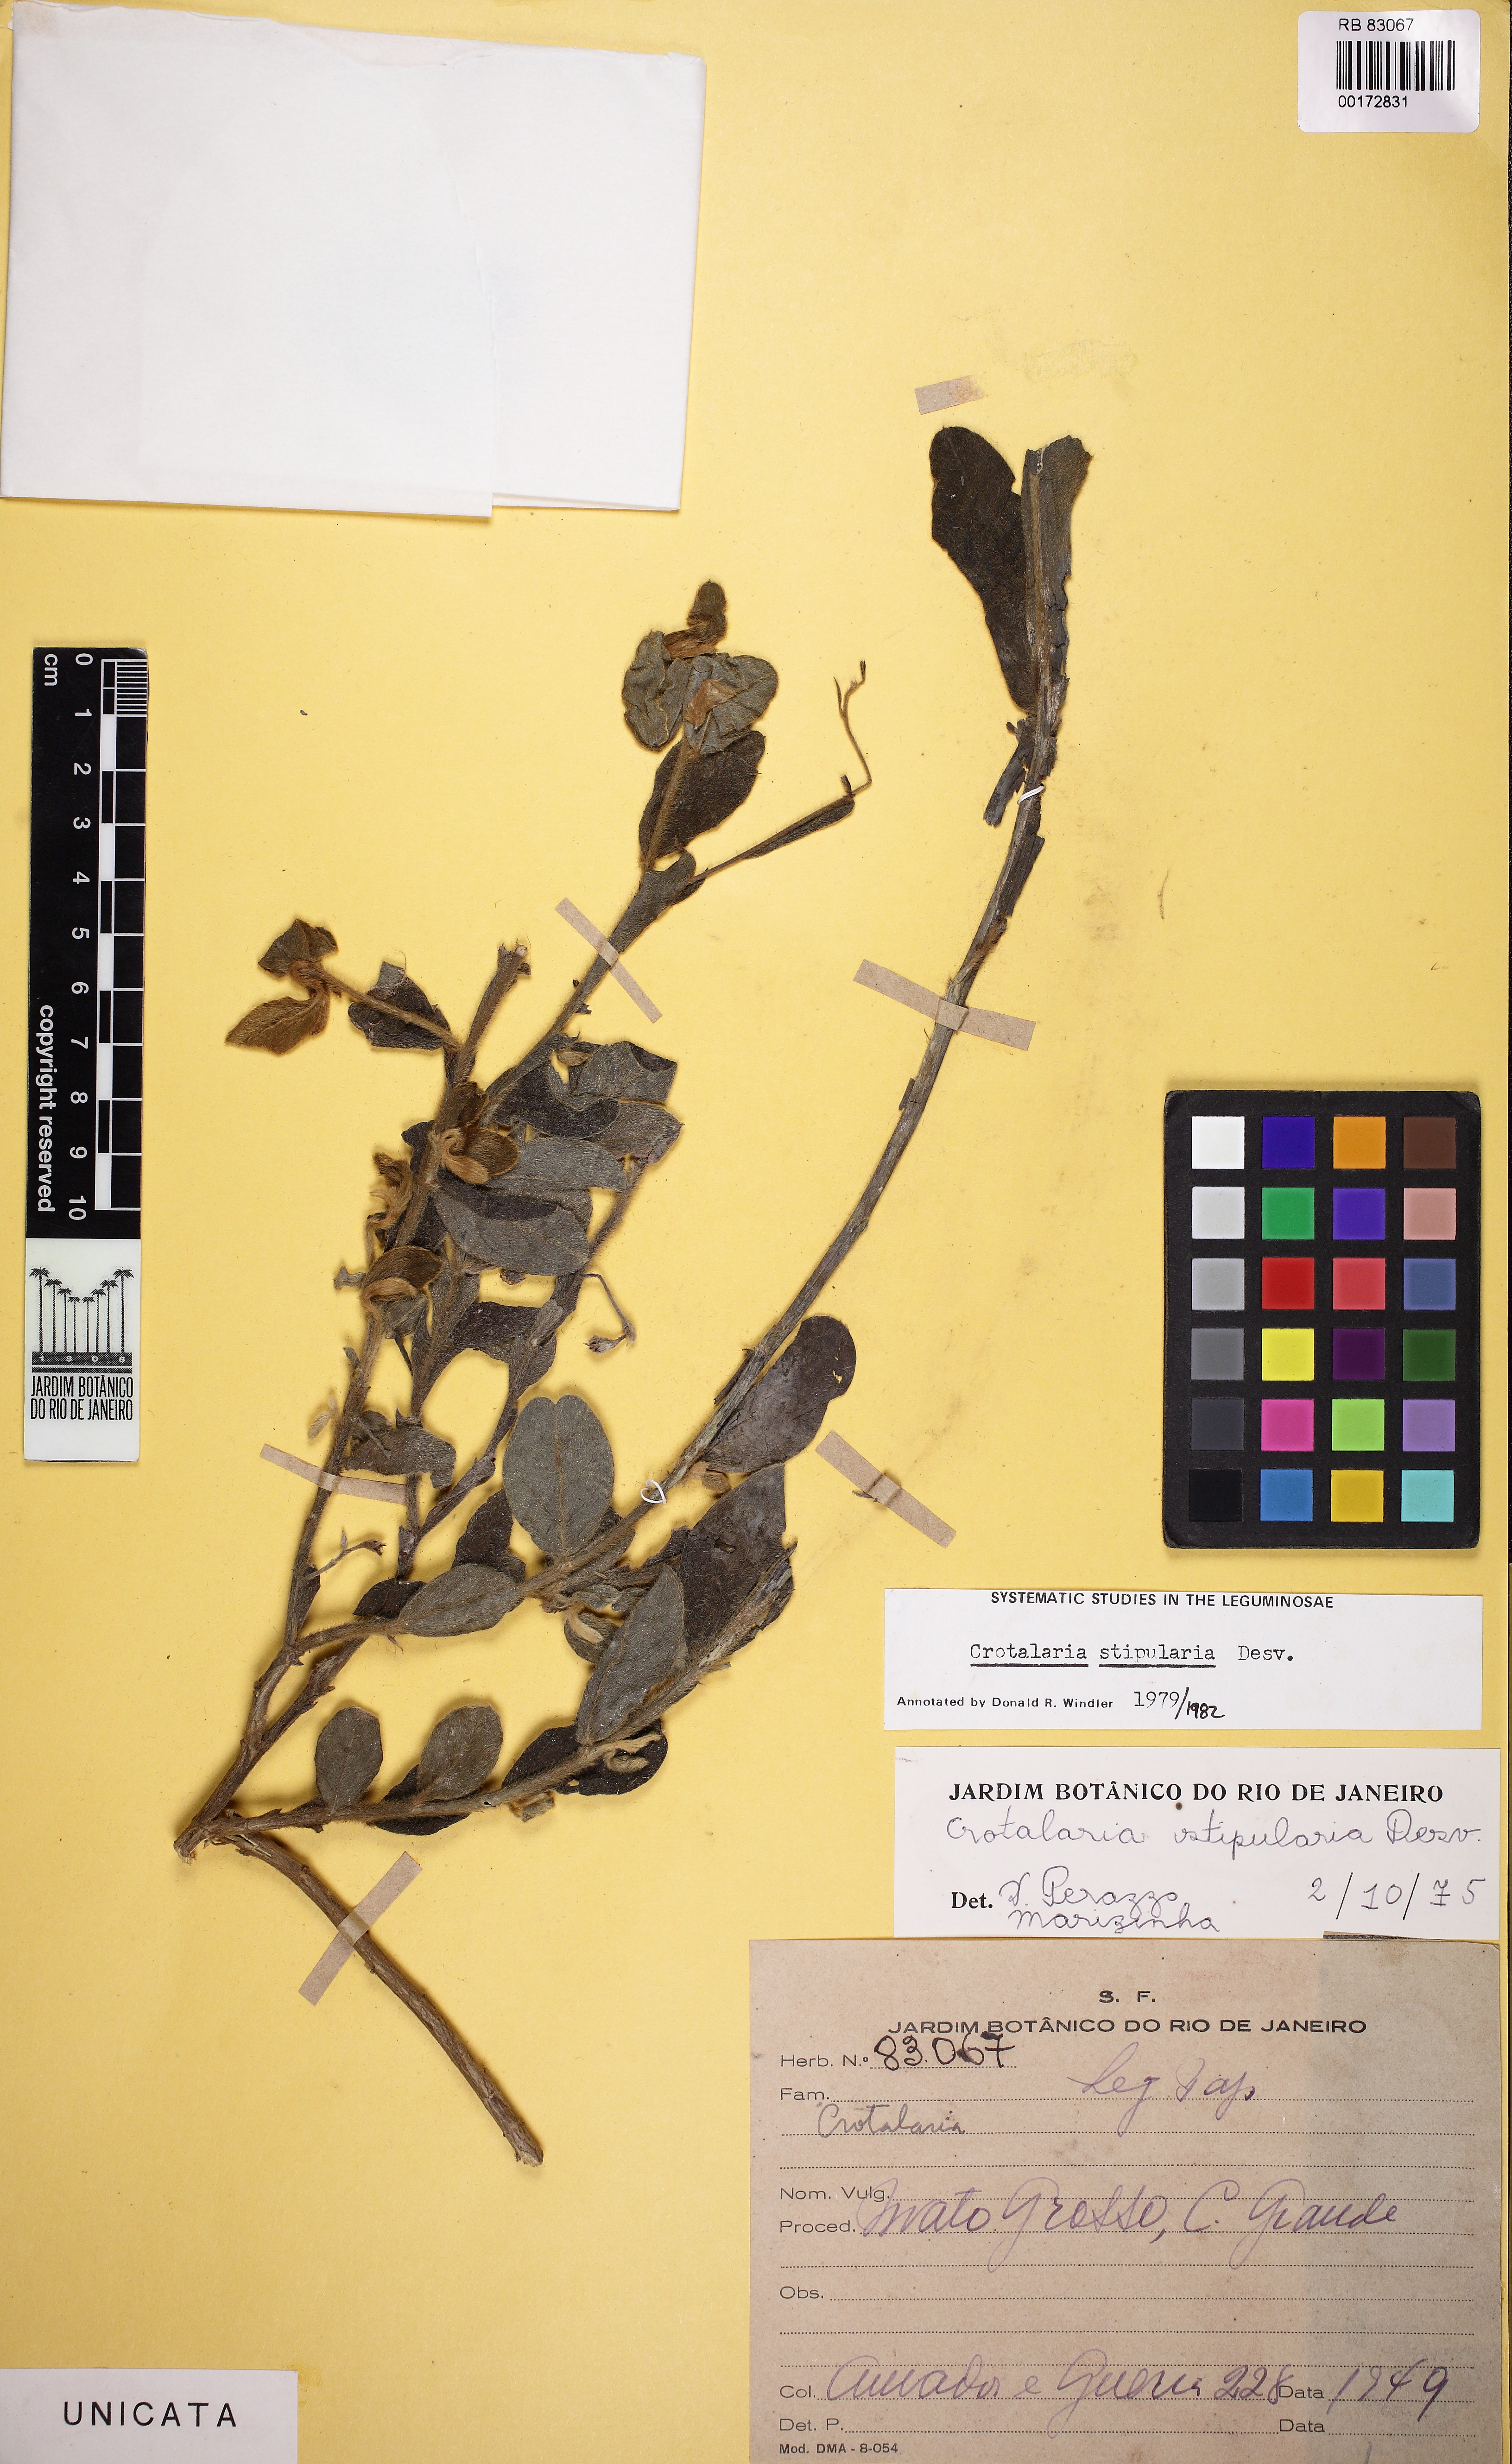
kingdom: Plantae
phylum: Tracheophyta
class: Magnoliopsida
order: Fabales
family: Fabaceae
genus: Crotalaria
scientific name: Crotalaria stipularia
